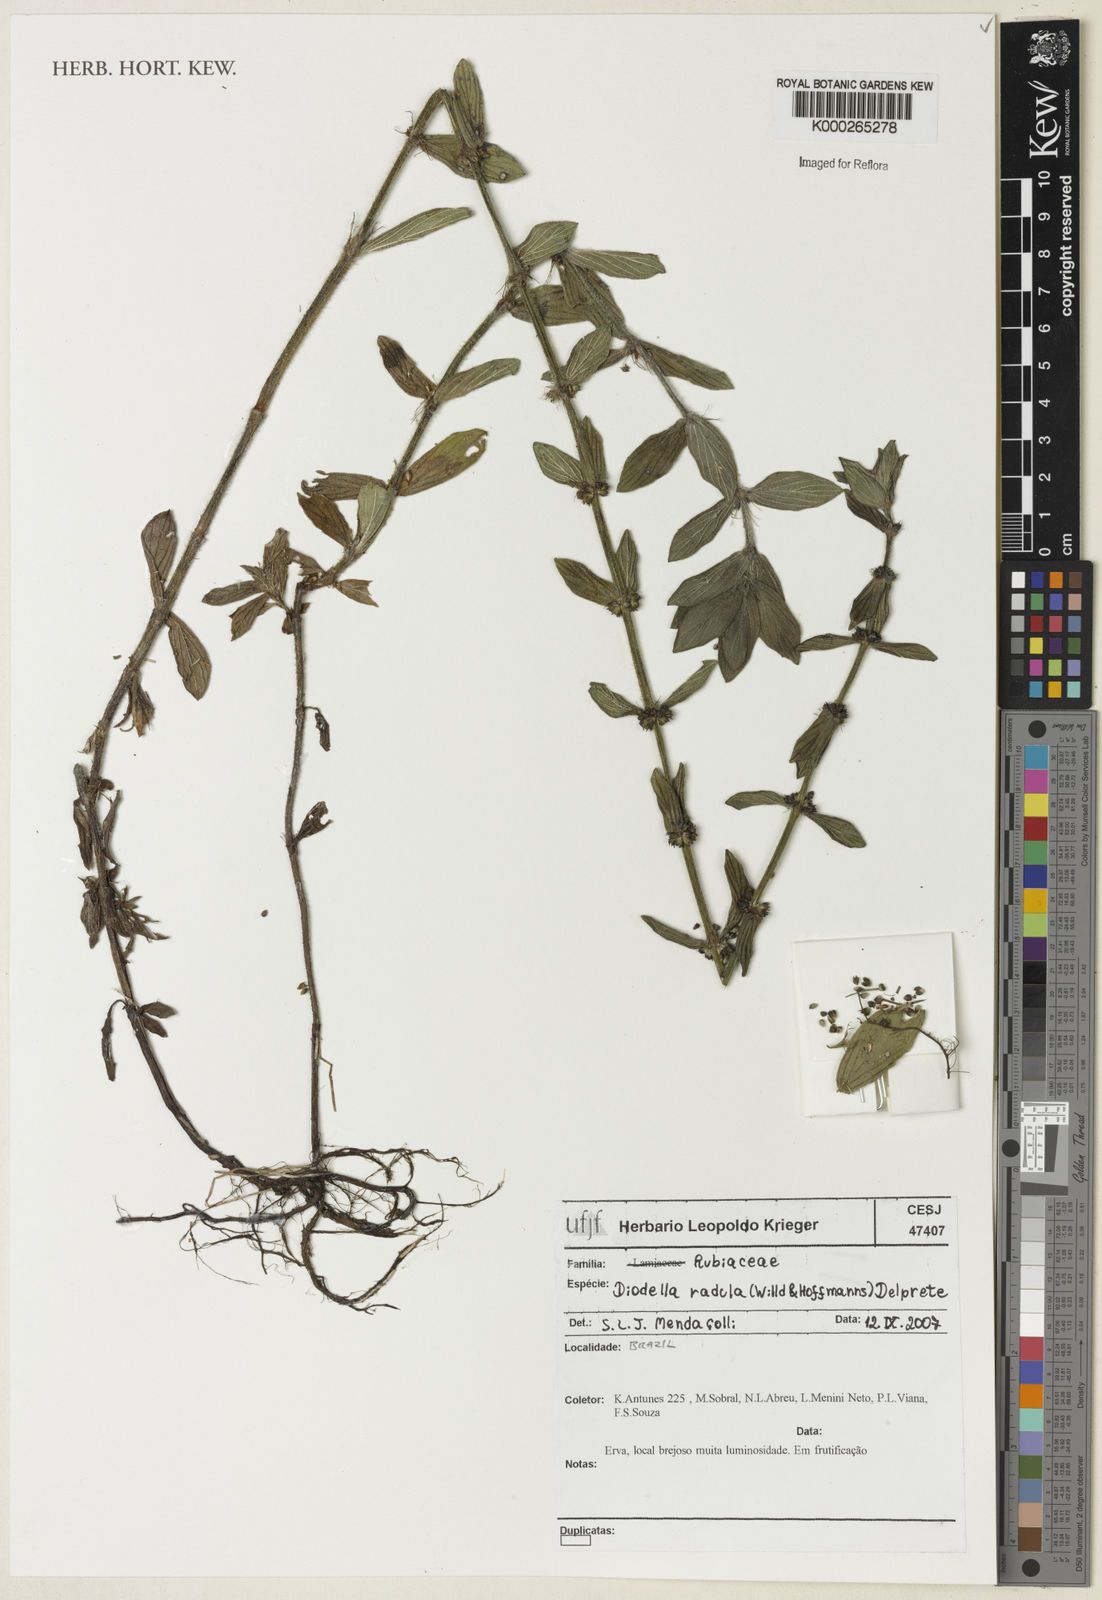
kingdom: Plantae
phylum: Tracheophyta
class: Magnoliopsida
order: Gentianales
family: Rubiaceae
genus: Hexasepalum
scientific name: Hexasepalum radulum
